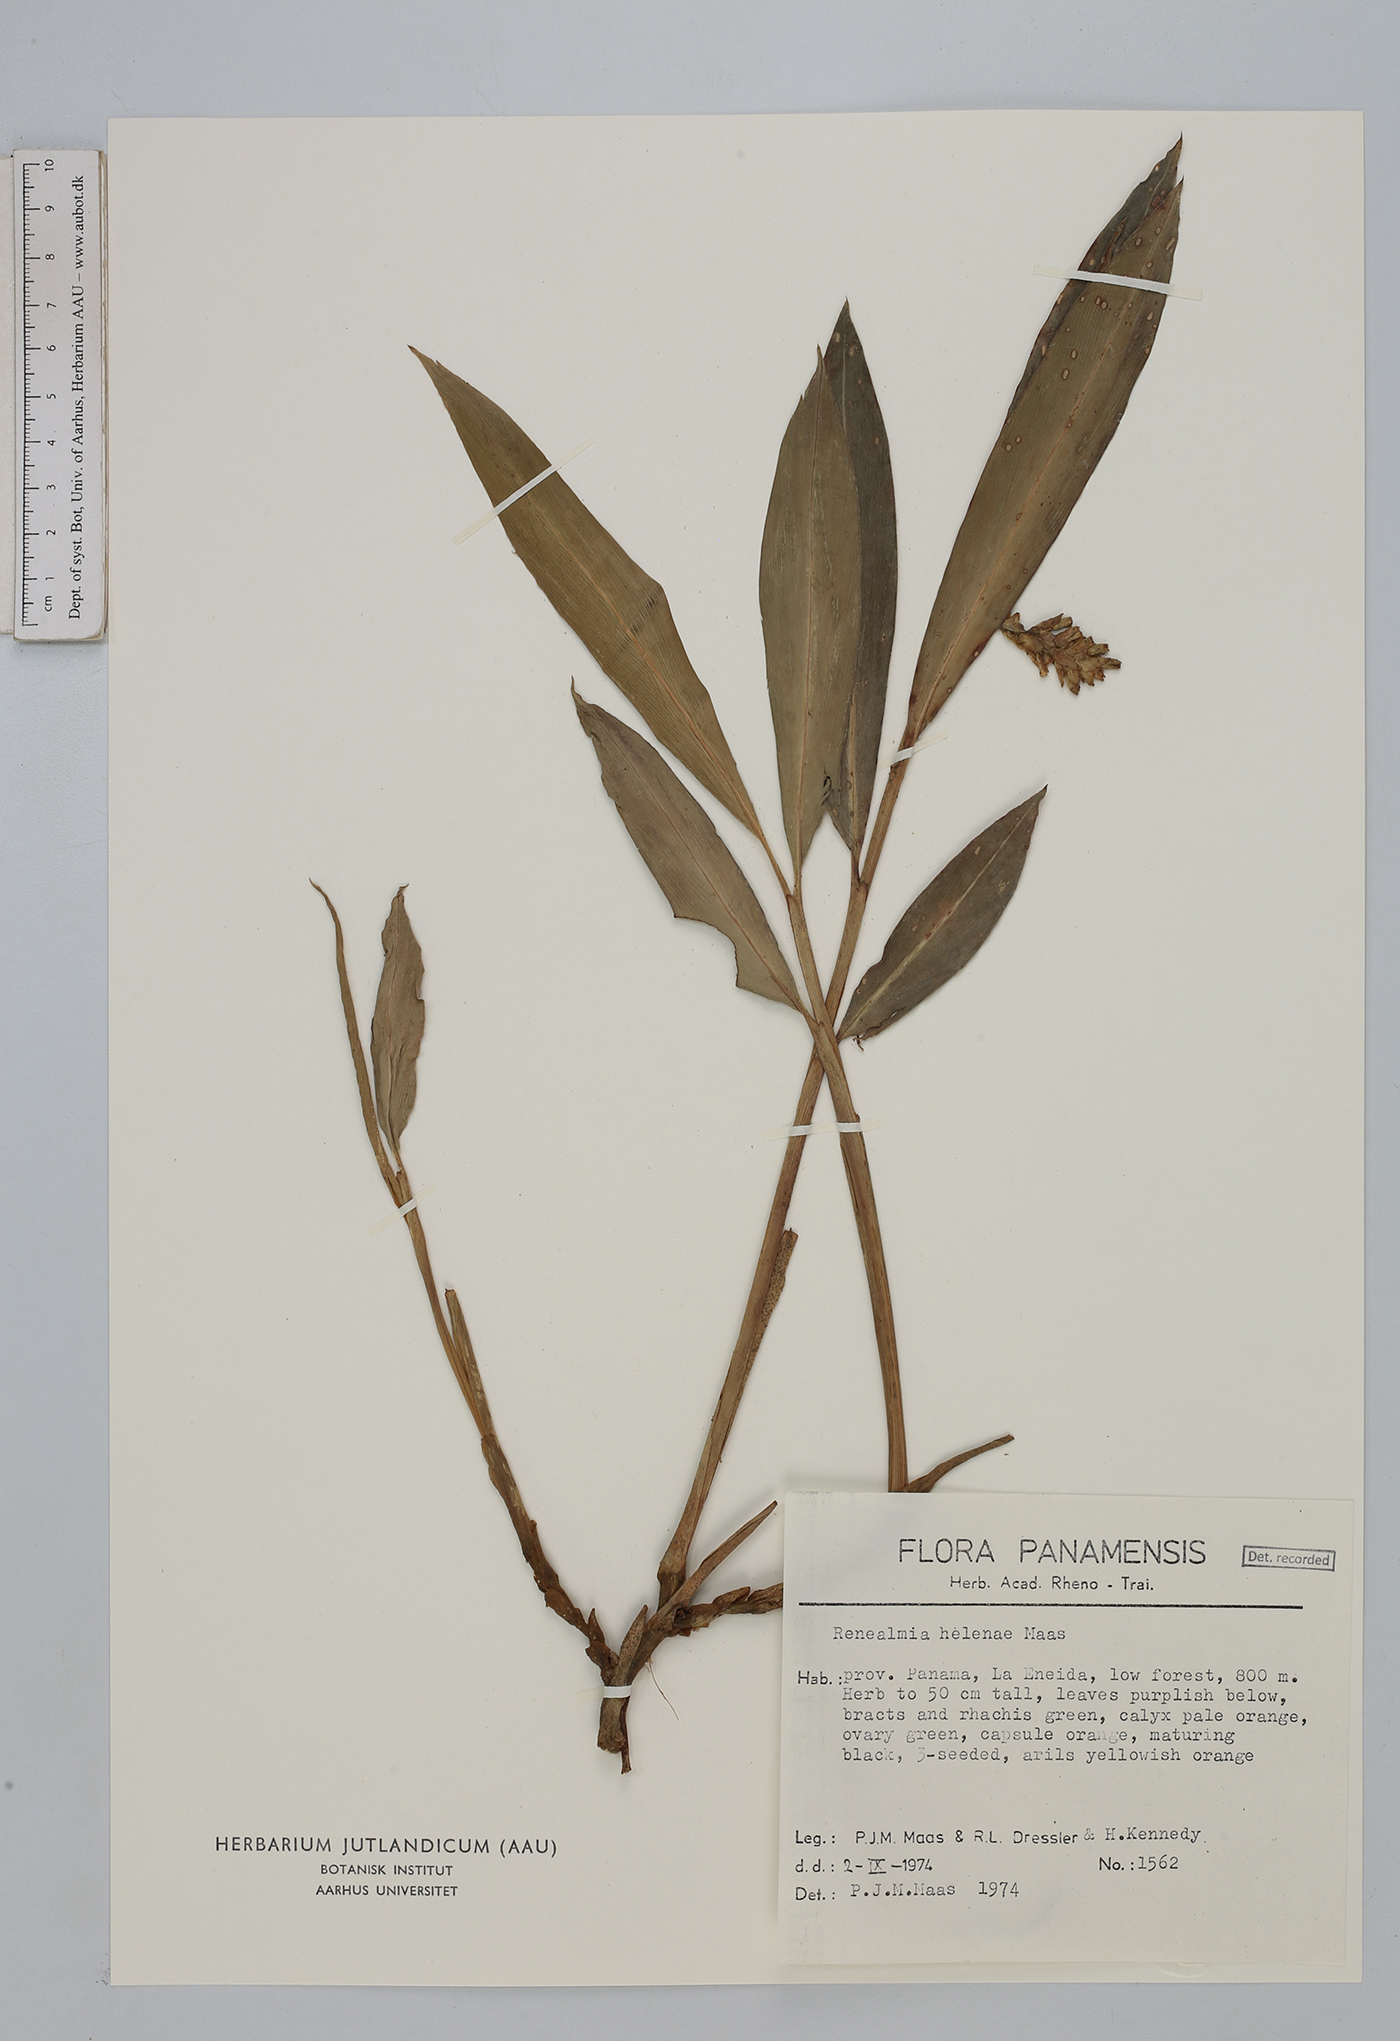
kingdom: Plantae
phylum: Tracheophyta
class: Liliopsida
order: Zingiberales
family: Zingiberaceae
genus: Renealmia
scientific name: Renealmia helenae
